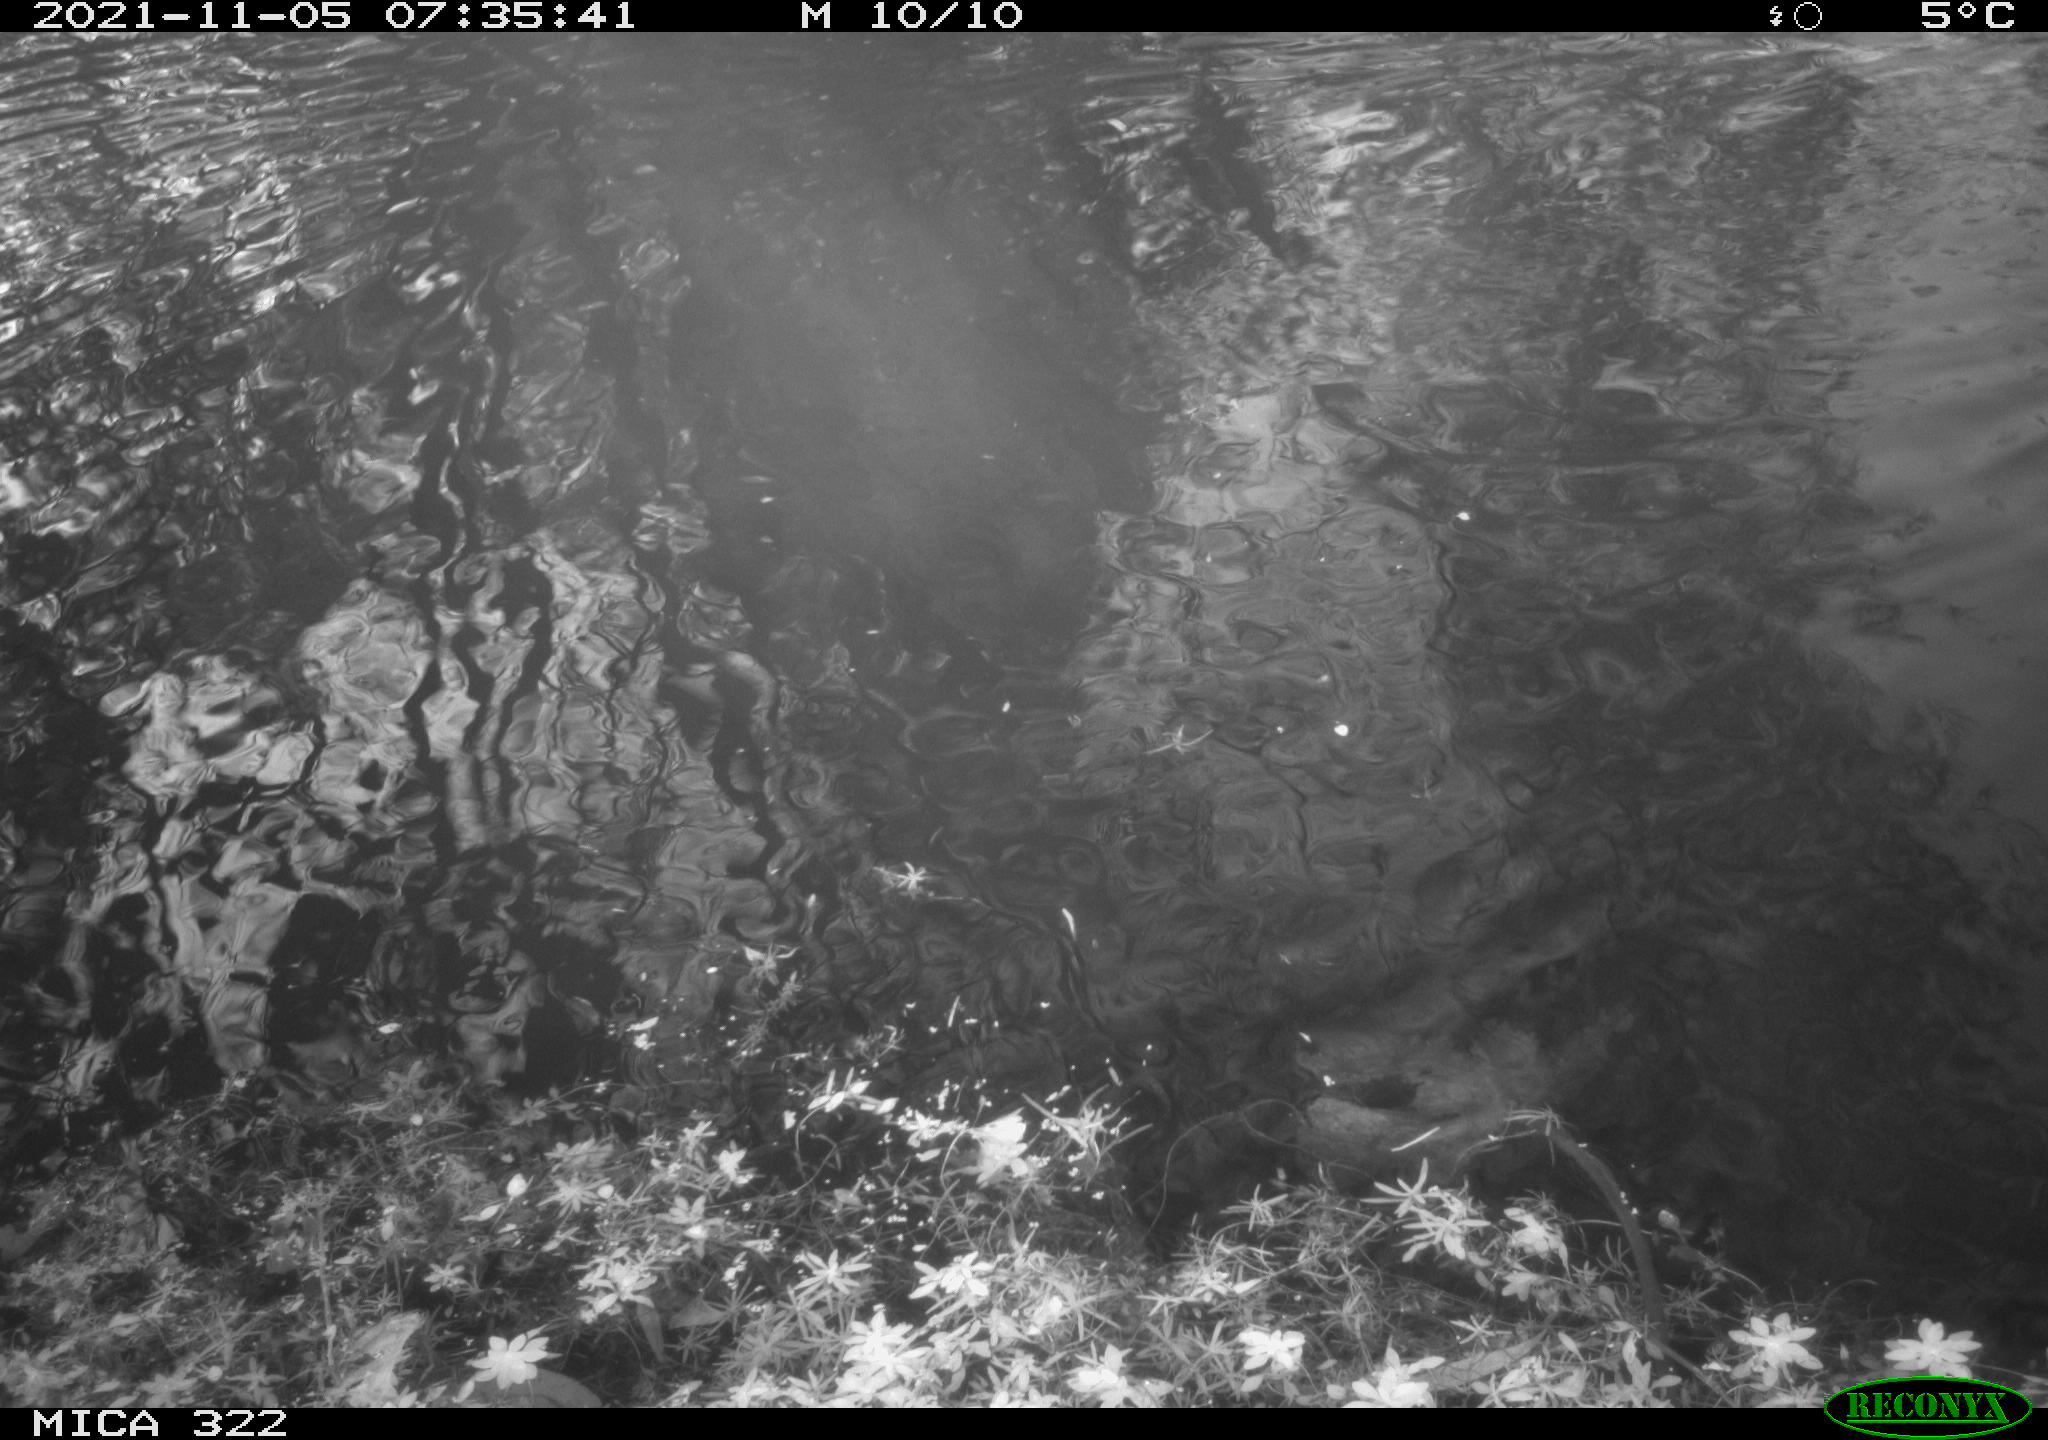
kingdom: Animalia
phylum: Chordata
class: Aves
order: Gruiformes
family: Rallidae
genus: Gallinula
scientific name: Gallinula chloropus
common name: Common moorhen
